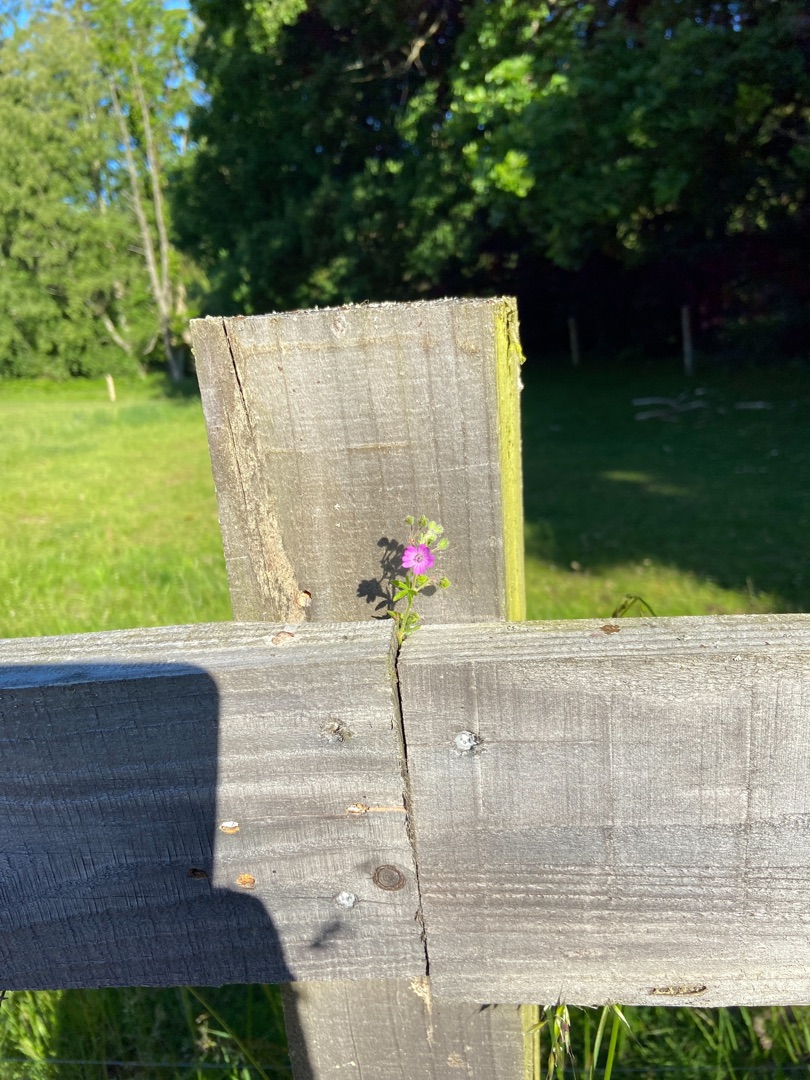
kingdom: Plantae
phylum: Tracheophyta
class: Magnoliopsida
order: Geraniales
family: Geraniaceae
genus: Geranium
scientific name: Geranium molle
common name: Blød storkenæb
